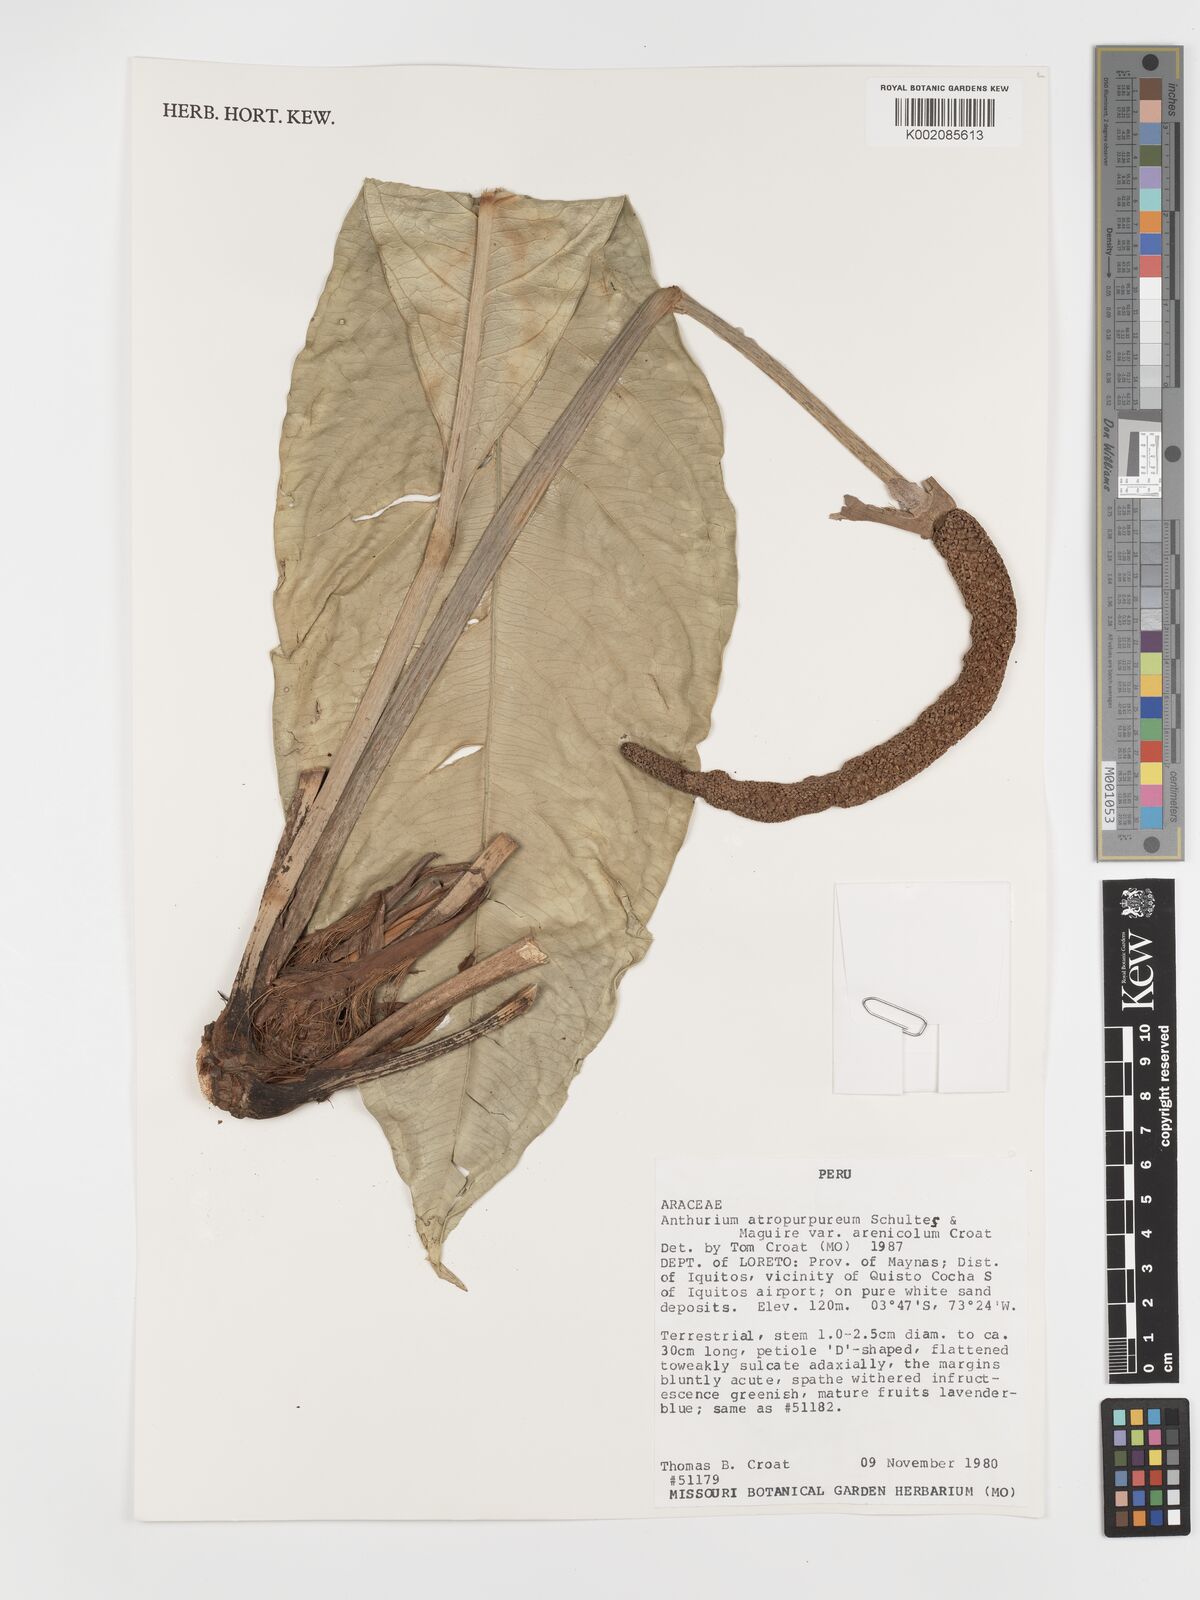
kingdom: Plantae
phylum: Tracheophyta
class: Liliopsida
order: Alismatales
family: Araceae
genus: Anthurium
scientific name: Anthurium atropurpureum
